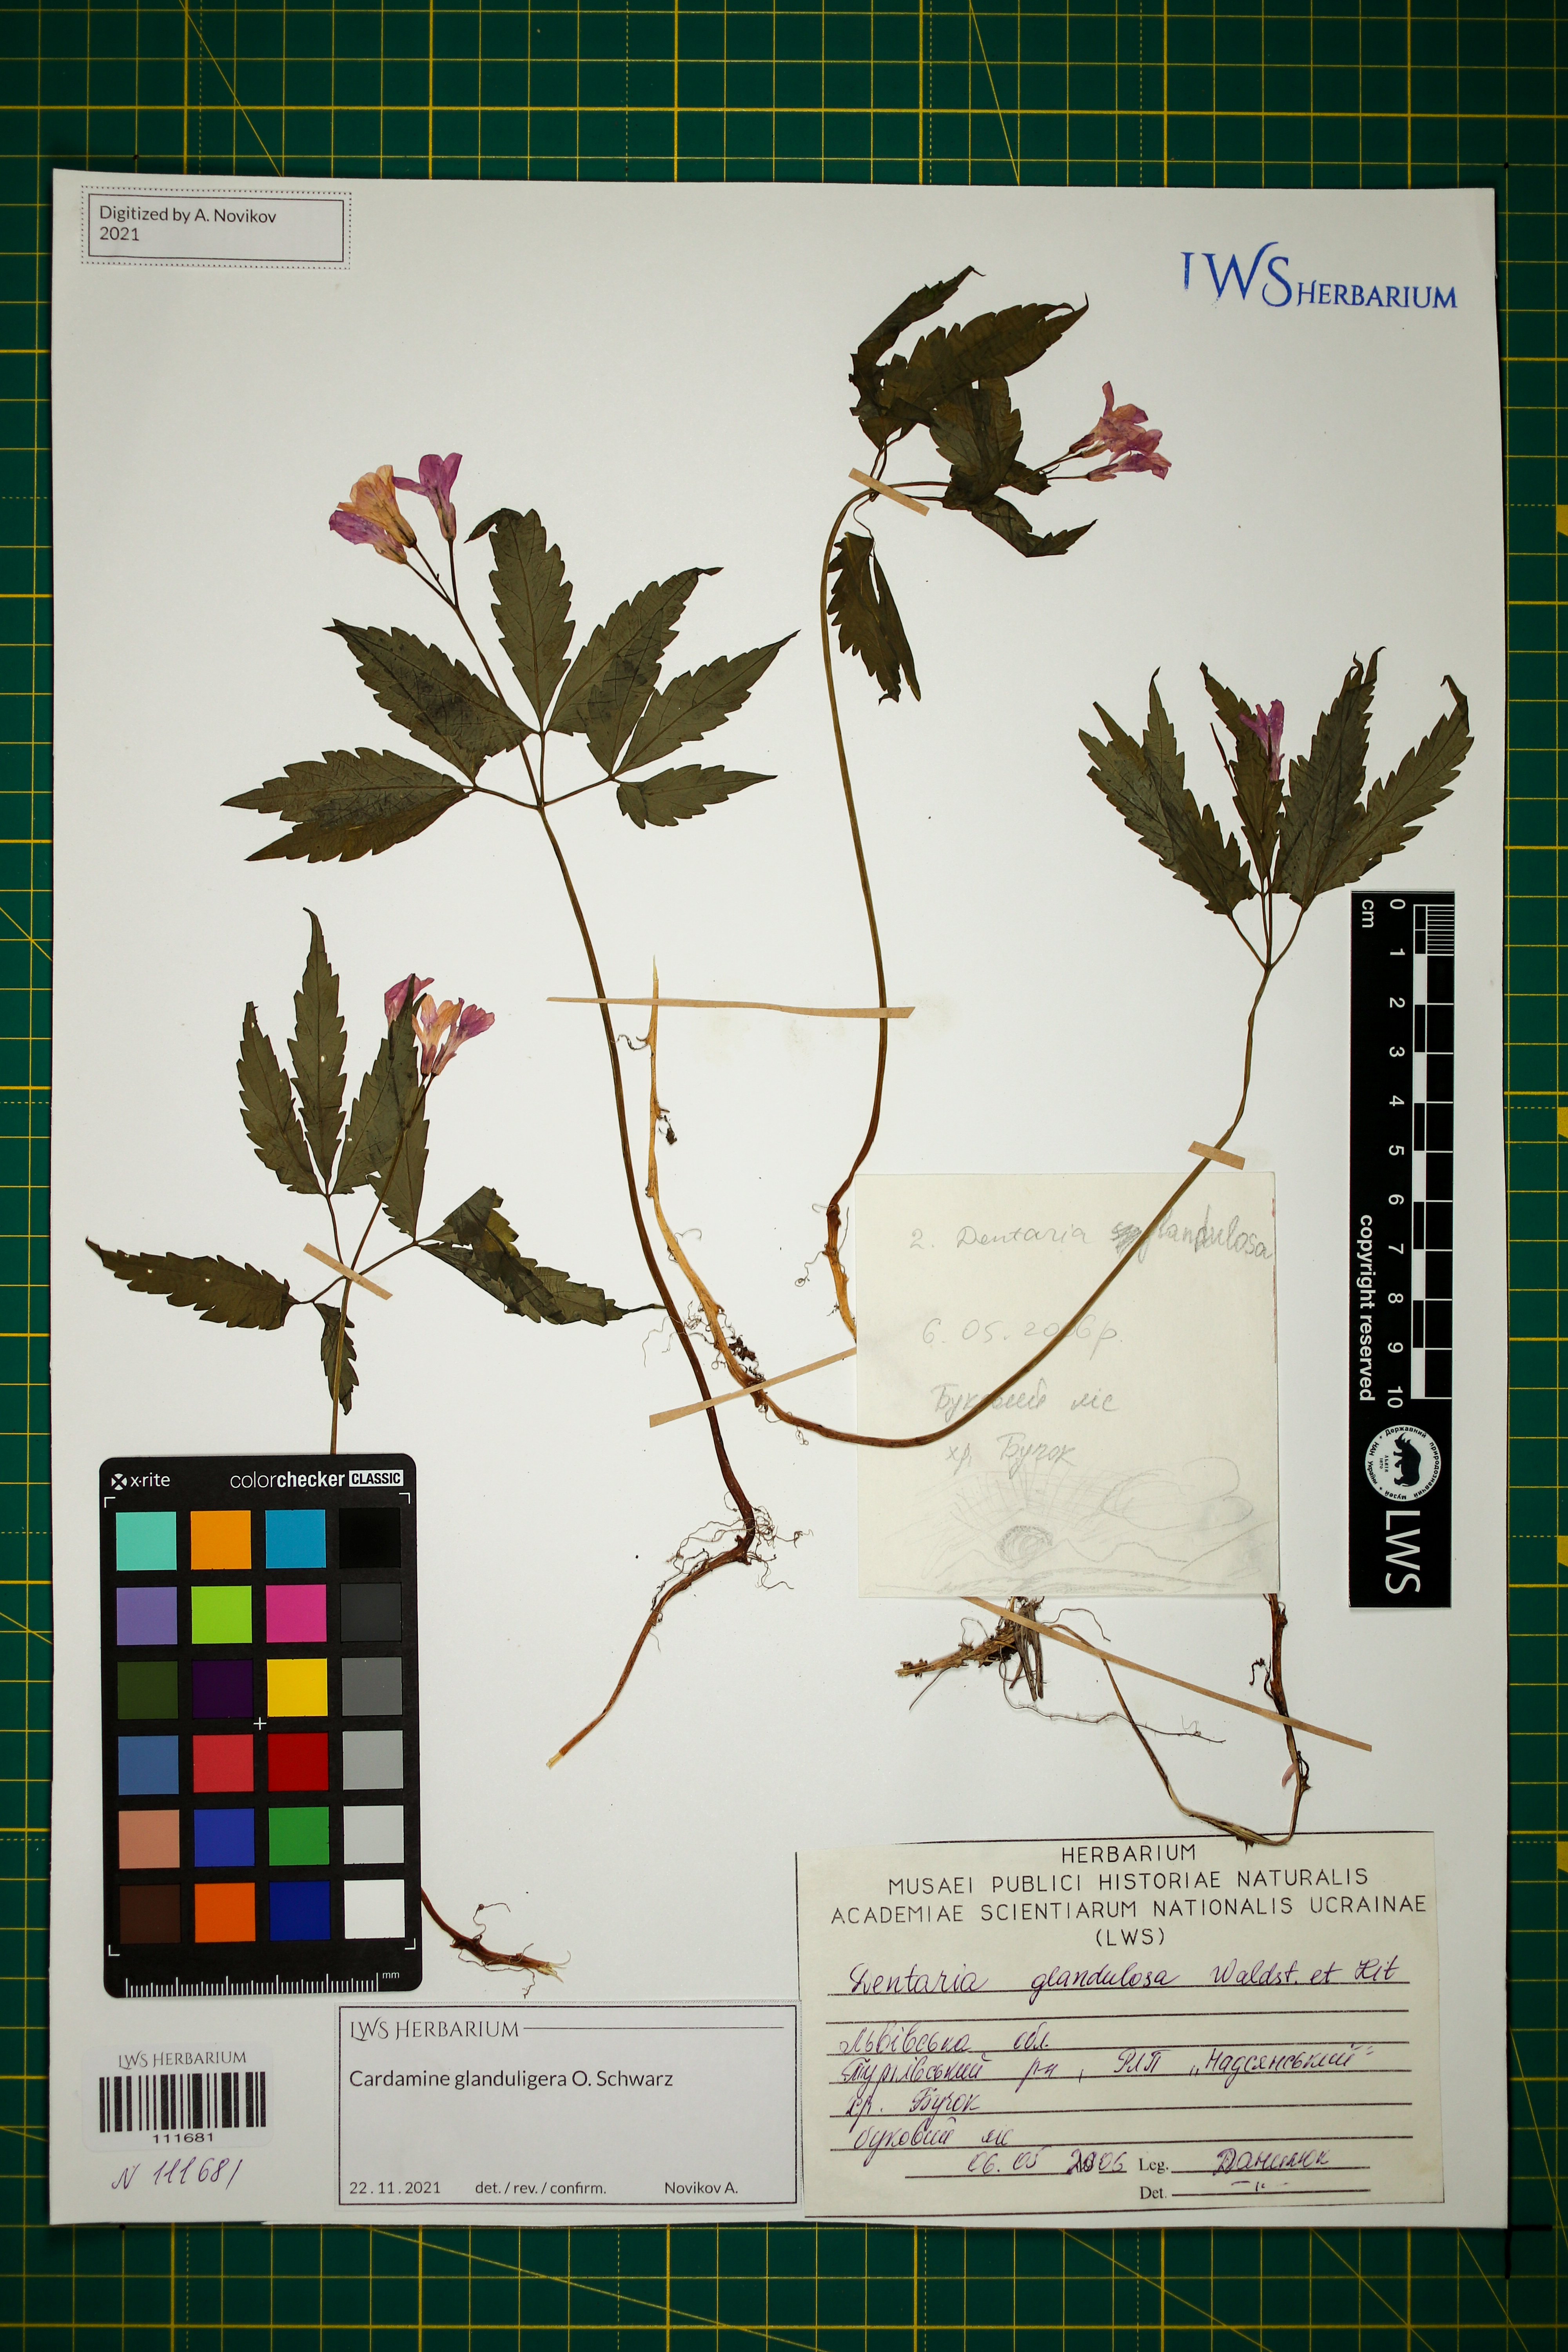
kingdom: Plantae
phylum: Tracheophyta
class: Magnoliopsida
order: Brassicales
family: Brassicaceae
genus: Cardamine
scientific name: Cardamine glanduligera
